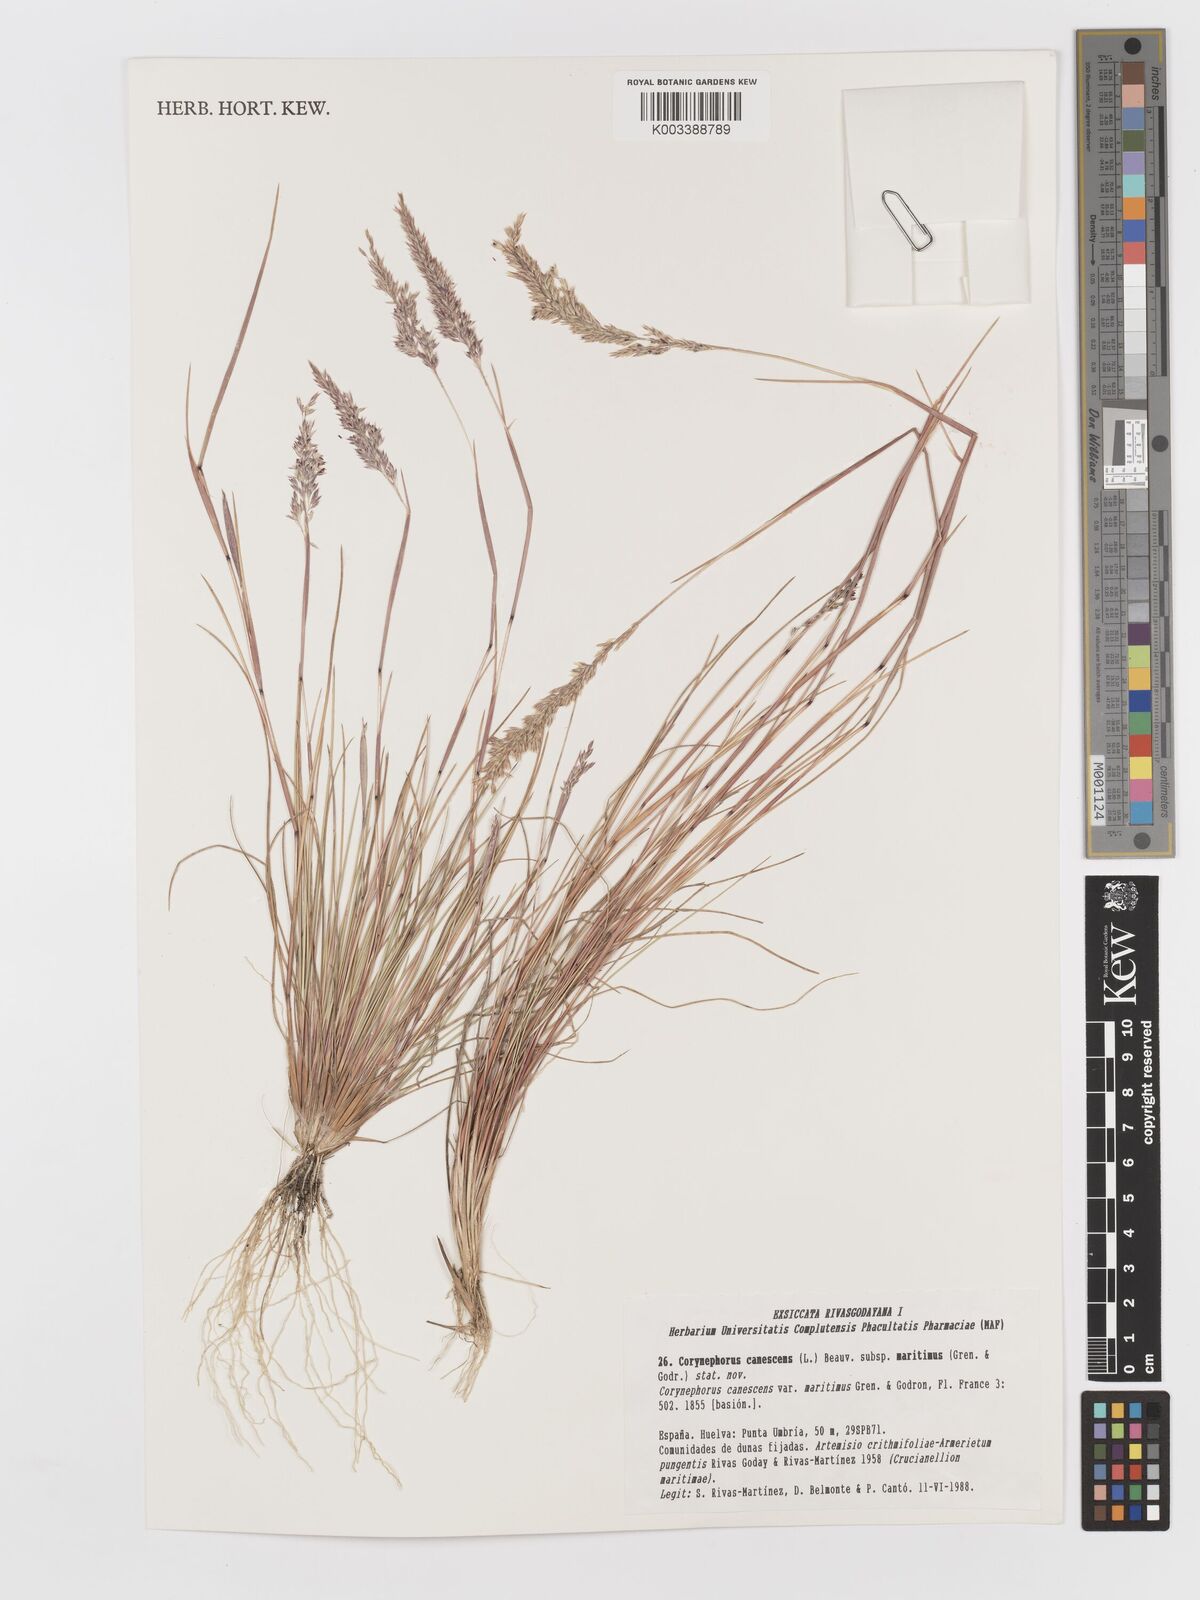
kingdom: Plantae
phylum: Tracheophyta
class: Liliopsida
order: Poales
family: Poaceae
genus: Corynephorus
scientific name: Corynephorus canescens
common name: Grey hair-grass
